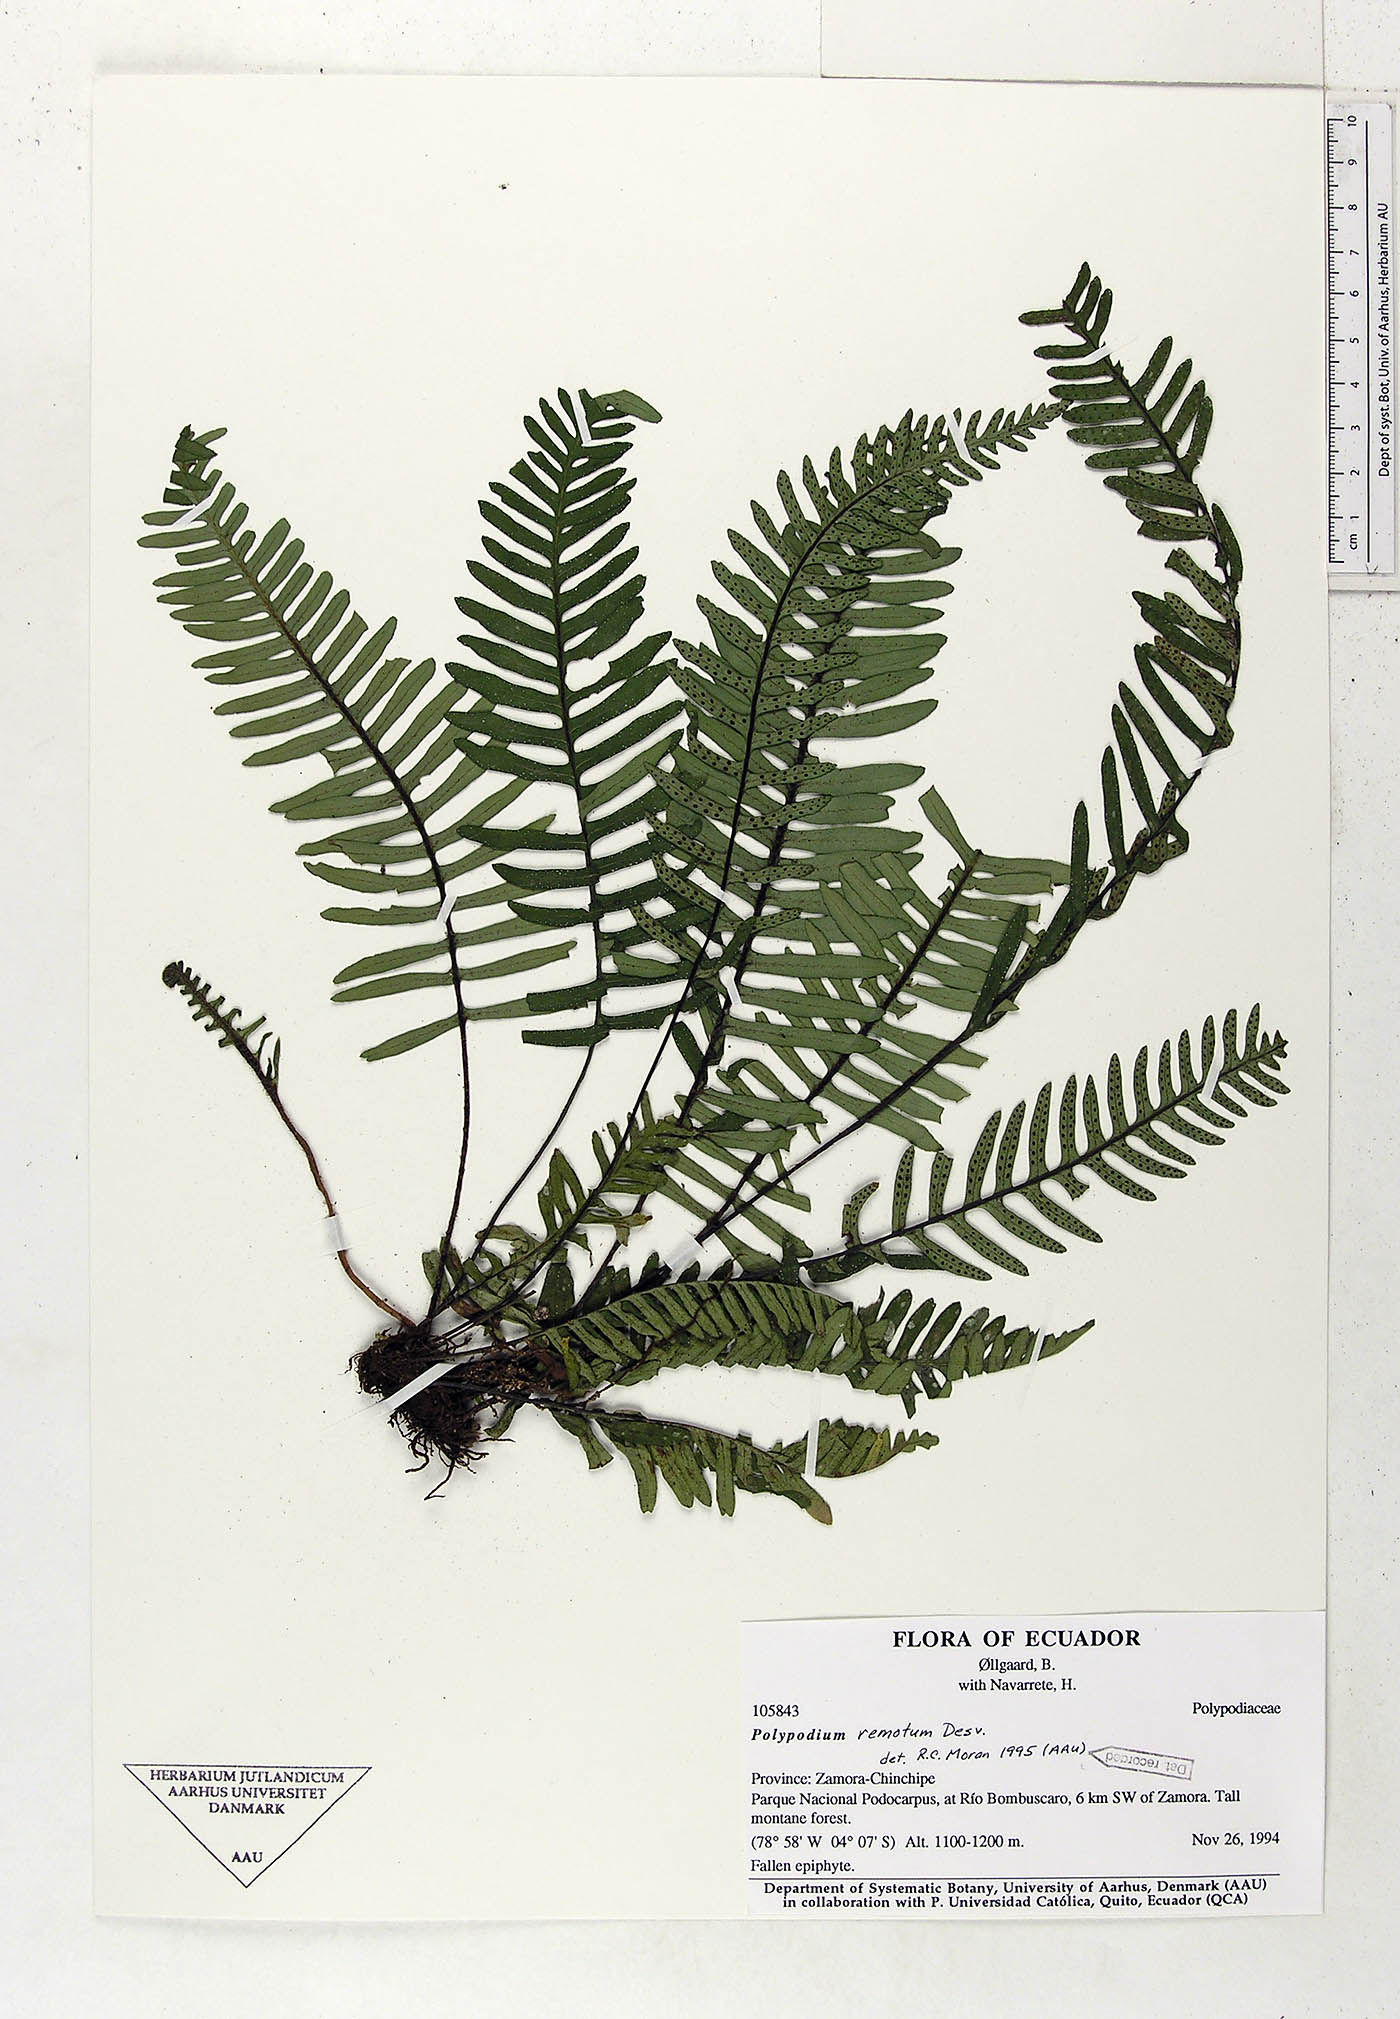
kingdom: Plantae
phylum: Tracheophyta
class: Polypodiopsida
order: Polypodiales
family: Polypodiaceae
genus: Pleopeltis
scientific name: Pleopeltis remota
